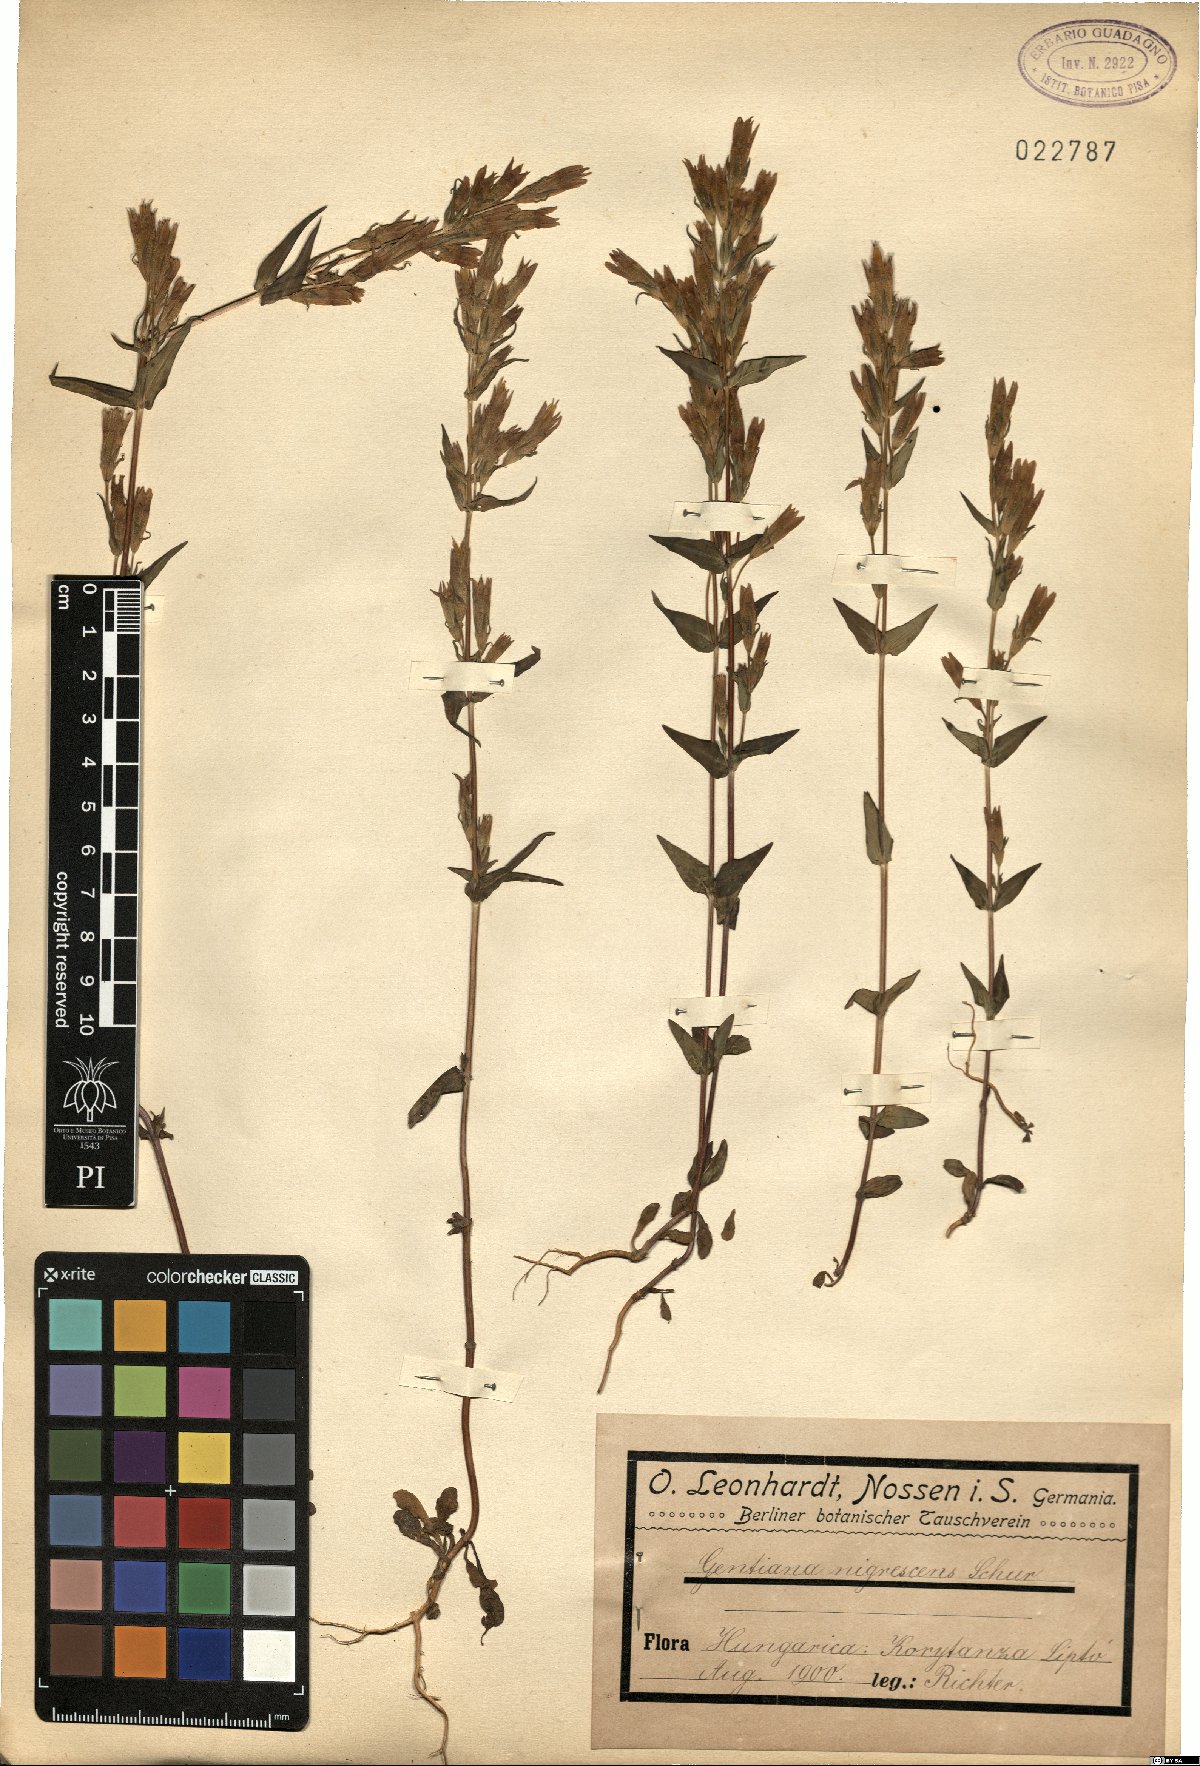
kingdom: Plantae
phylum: Tracheophyta
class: Magnoliopsida
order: Gentianales
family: Gentianaceae
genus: Gentianella
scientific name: Gentianella amarella
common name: Autumn gentian
